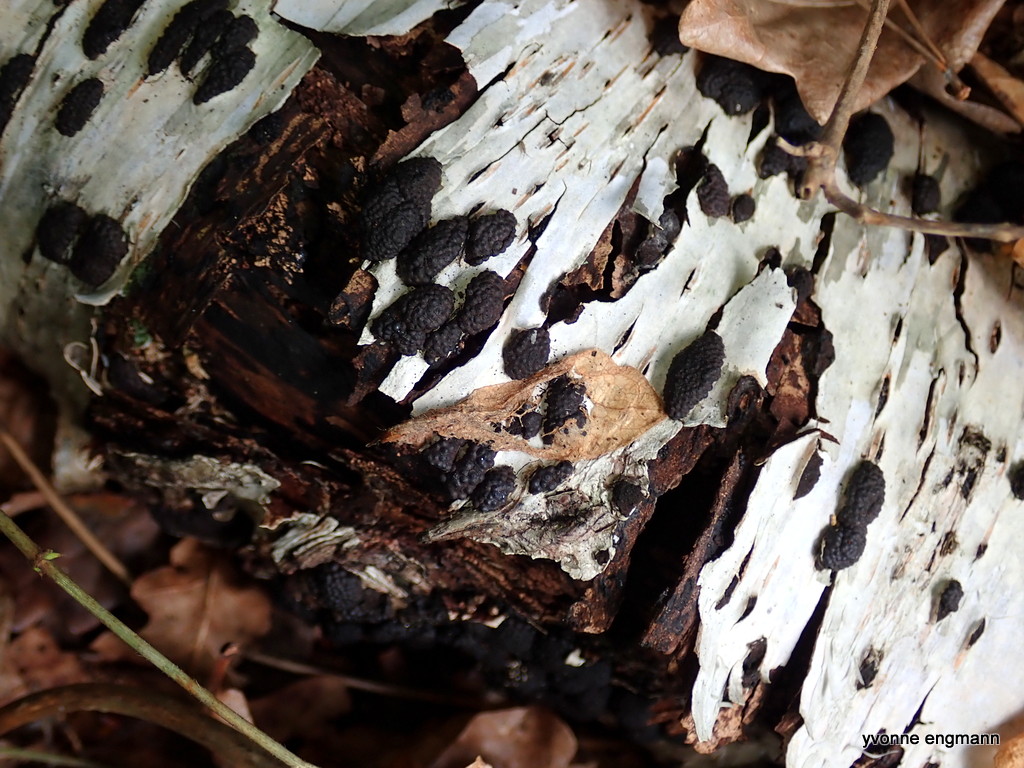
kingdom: Fungi
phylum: Ascomycota
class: Sordariomycetes
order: Xylariales
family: Hypoxylaceae
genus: Jackrogersella
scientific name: Jackrogersella multiformis
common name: foranderlig kulbær
